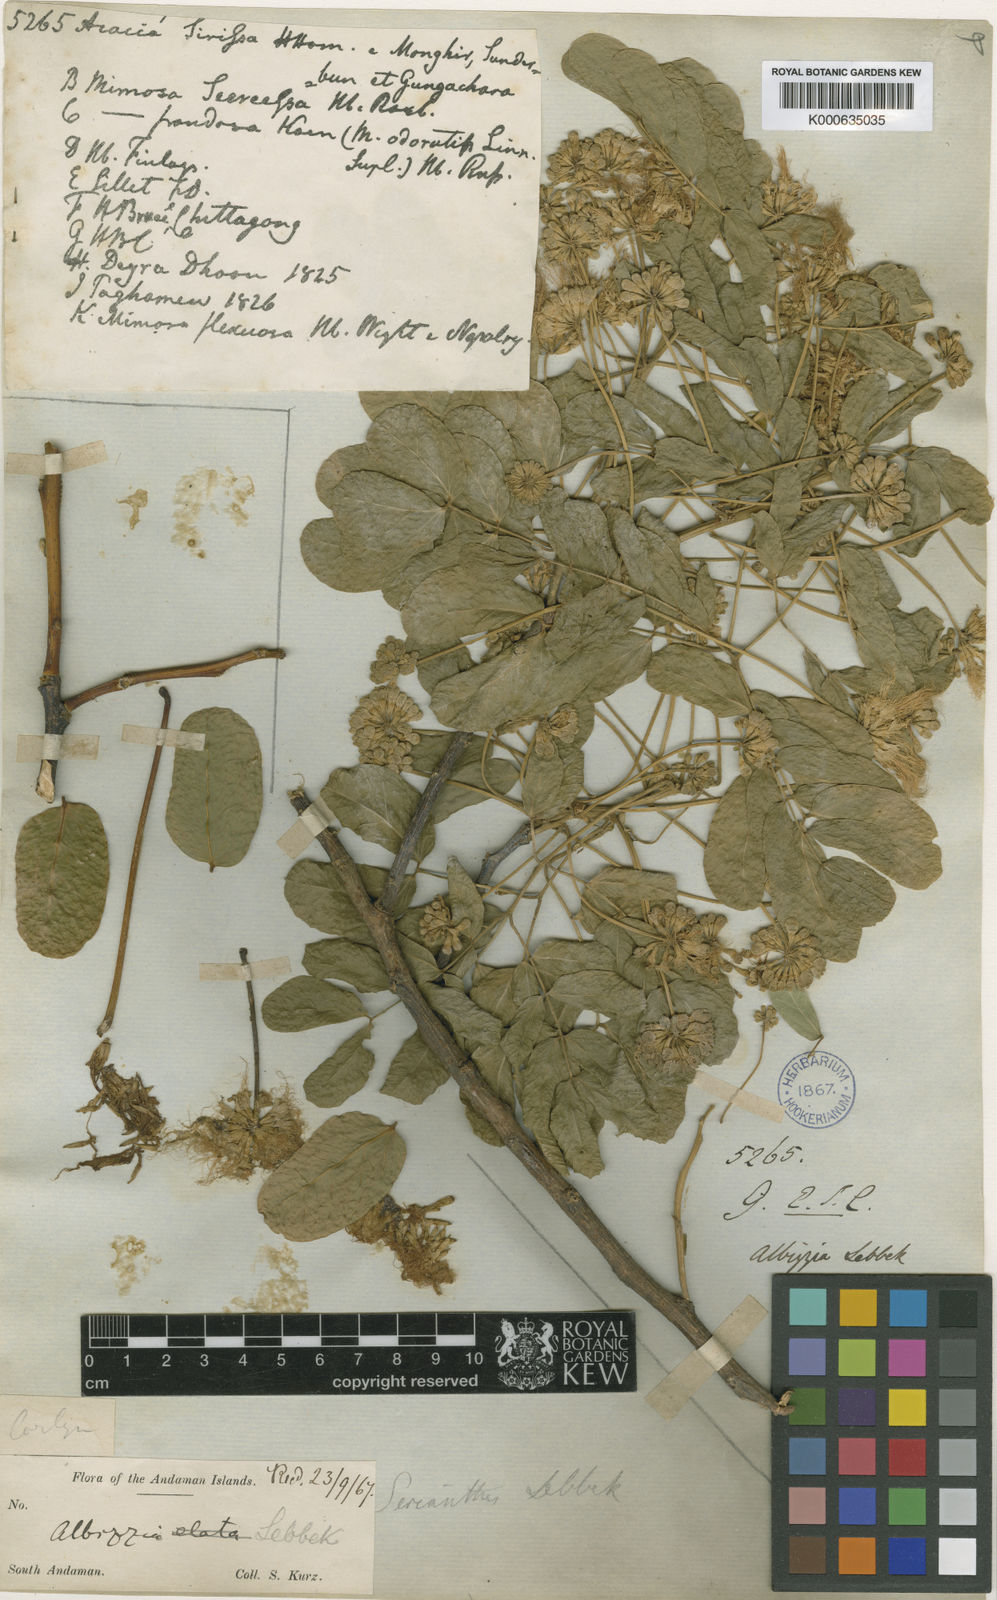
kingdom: Plantae
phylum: Tracheophyta
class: Magnoliopsida
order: Fabales
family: Fabaceae
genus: Albizia
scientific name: Albizia lebbeck
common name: Woman's tongue
